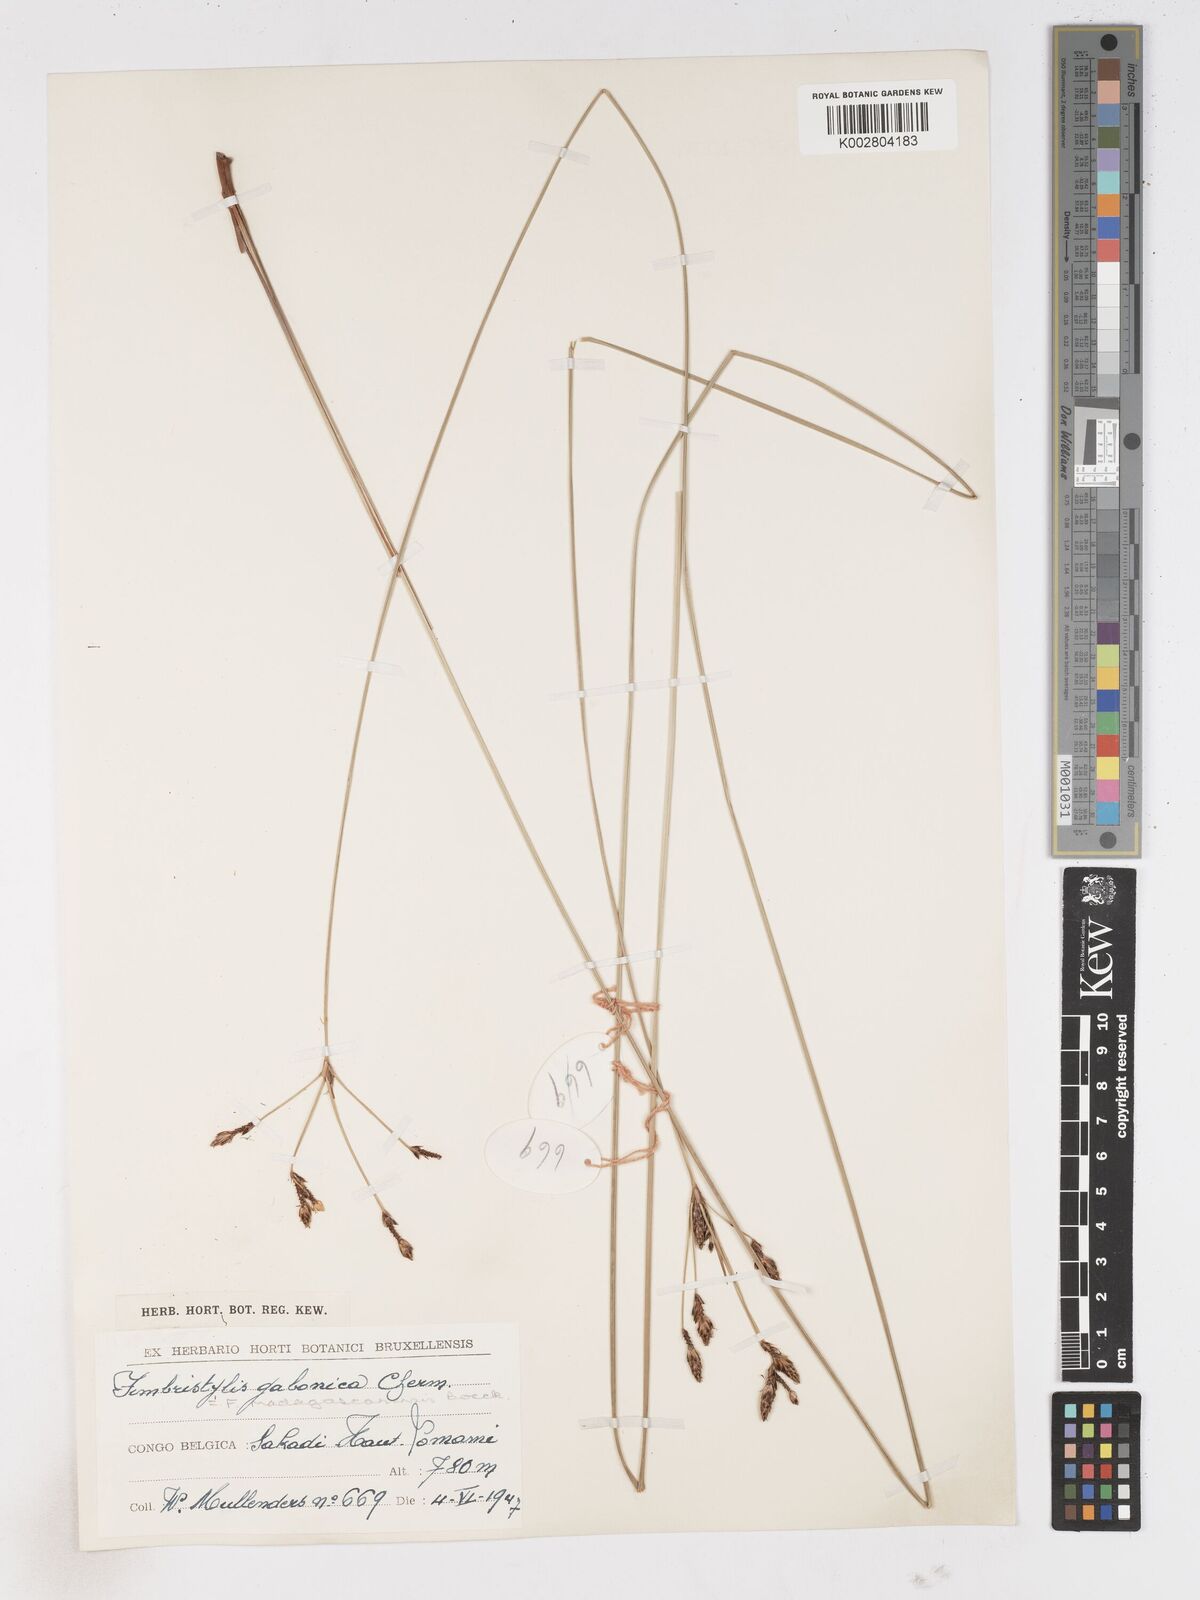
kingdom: Plantae
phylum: Tracheophyta
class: Liliopsida
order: Poales
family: Cyperaceae
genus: Fimbristylis
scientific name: Fimbristylis madagascariensis
